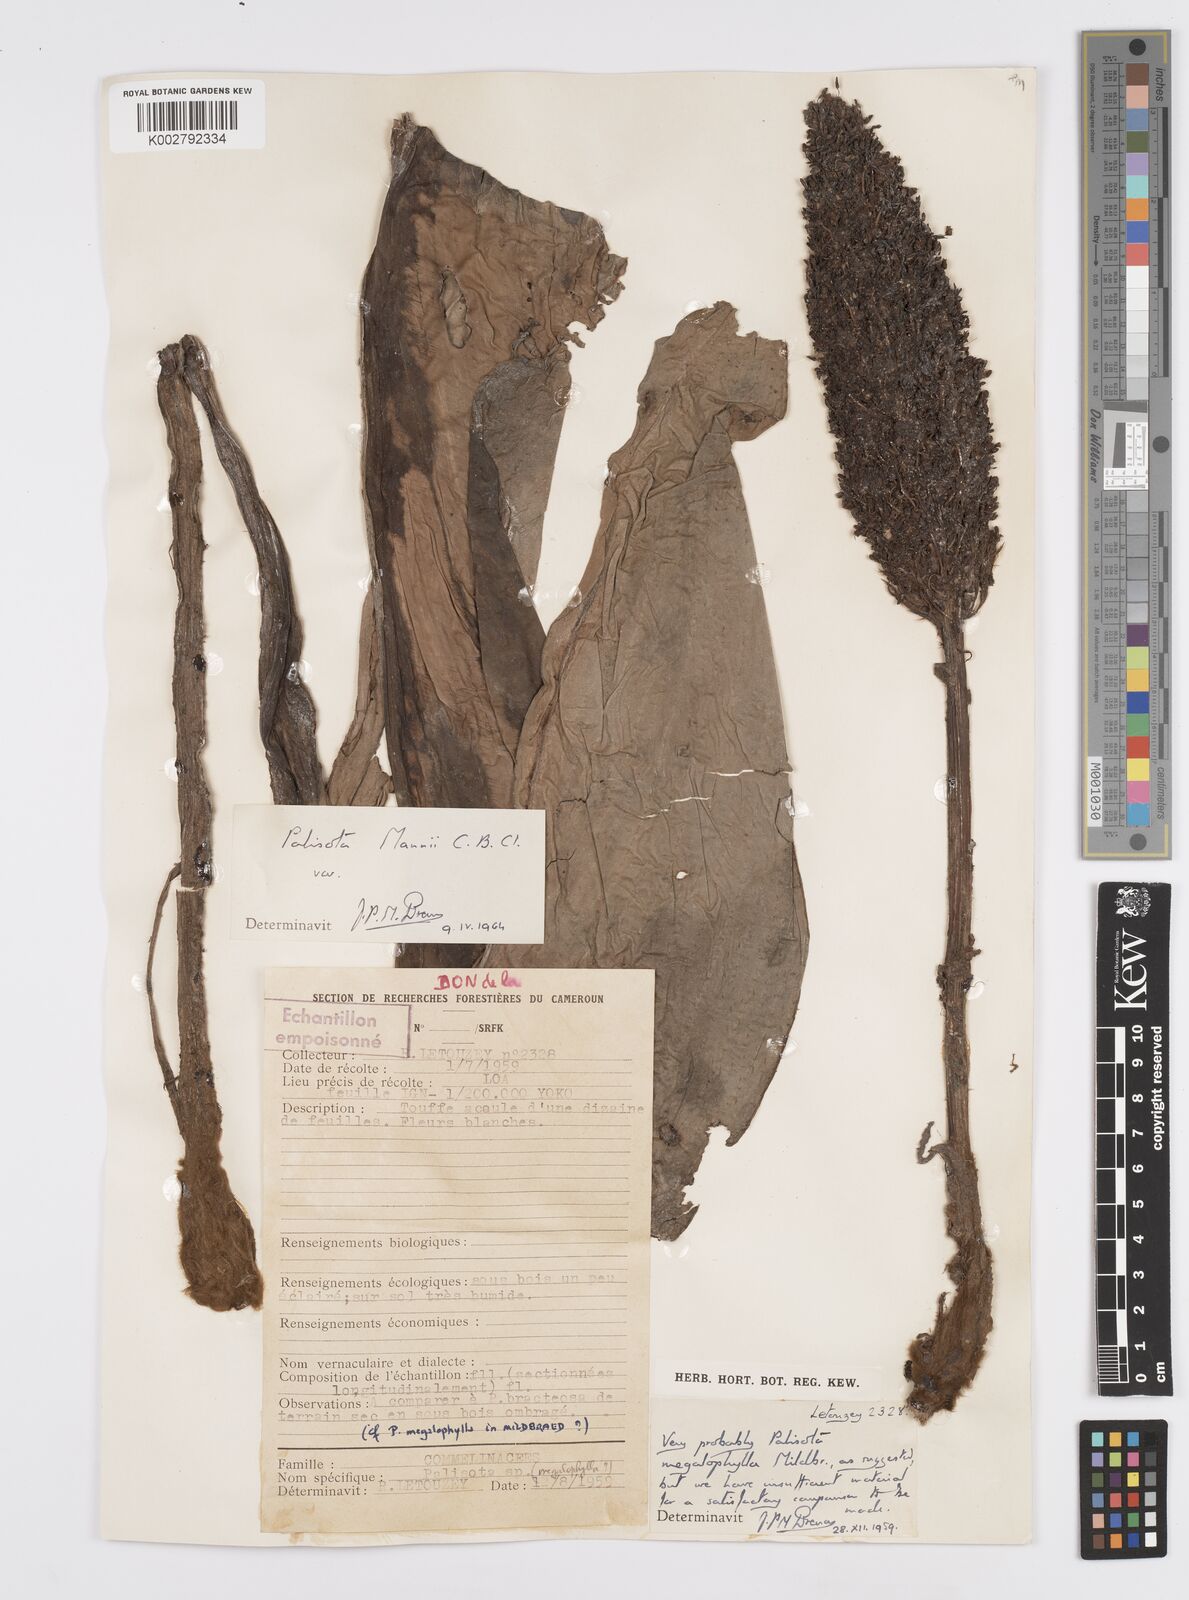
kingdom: Plantae
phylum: Tracheophyta
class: Liliopsida
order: Commelinales
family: Commelinaceae
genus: Palisota
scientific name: Palisota mannii
